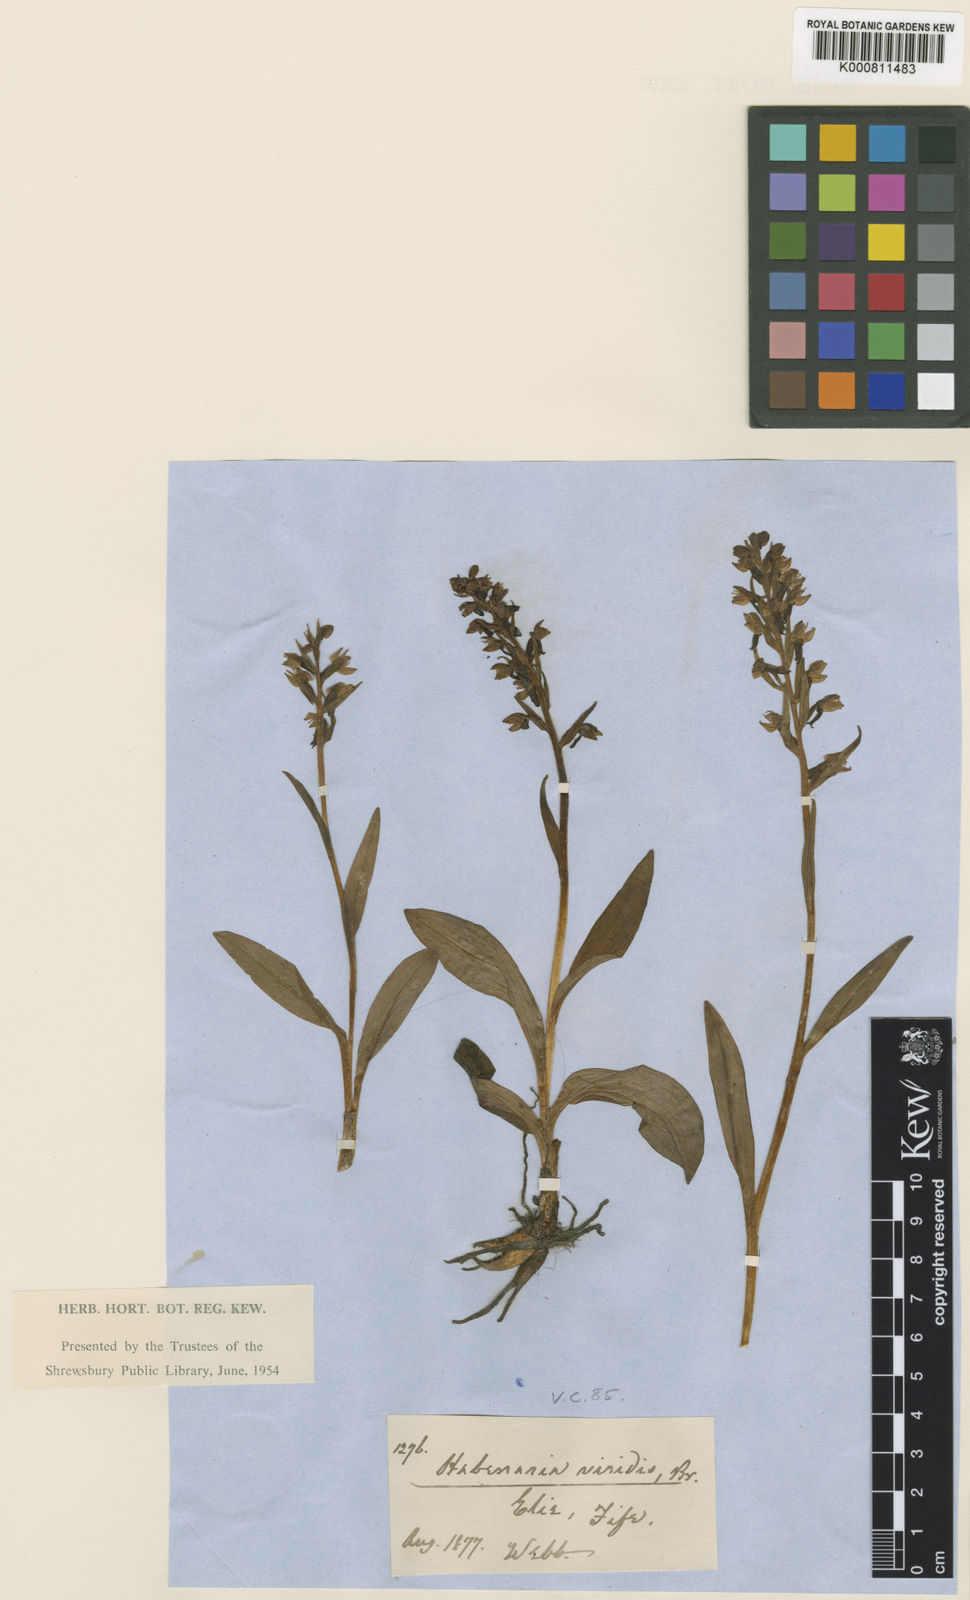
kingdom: Plantae
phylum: Tracheophyta
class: Liliopsida
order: Asparagales
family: Orchidaceae
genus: Dactylorhiza
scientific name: Dactylorhiza viridis
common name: Longbract frog orchid
